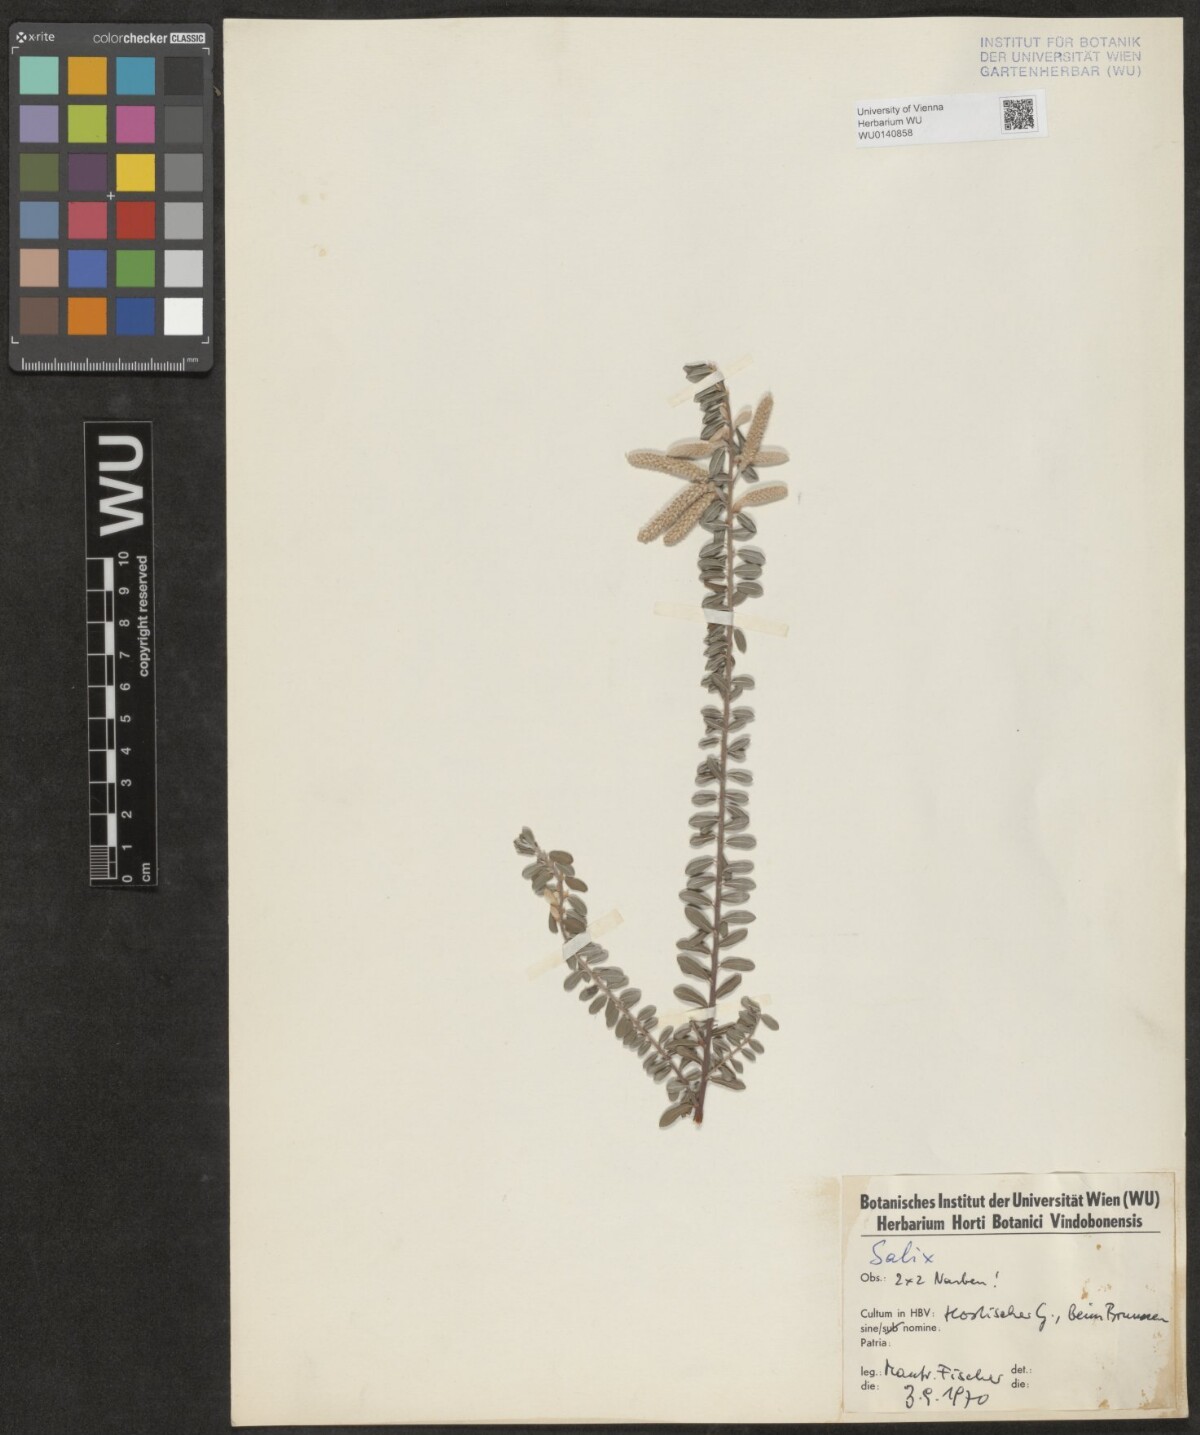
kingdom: Plantae
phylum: Tracheophyta
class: Magnoliopsida
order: Malpighiales
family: Salicaceae
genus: Salix
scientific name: Salix
